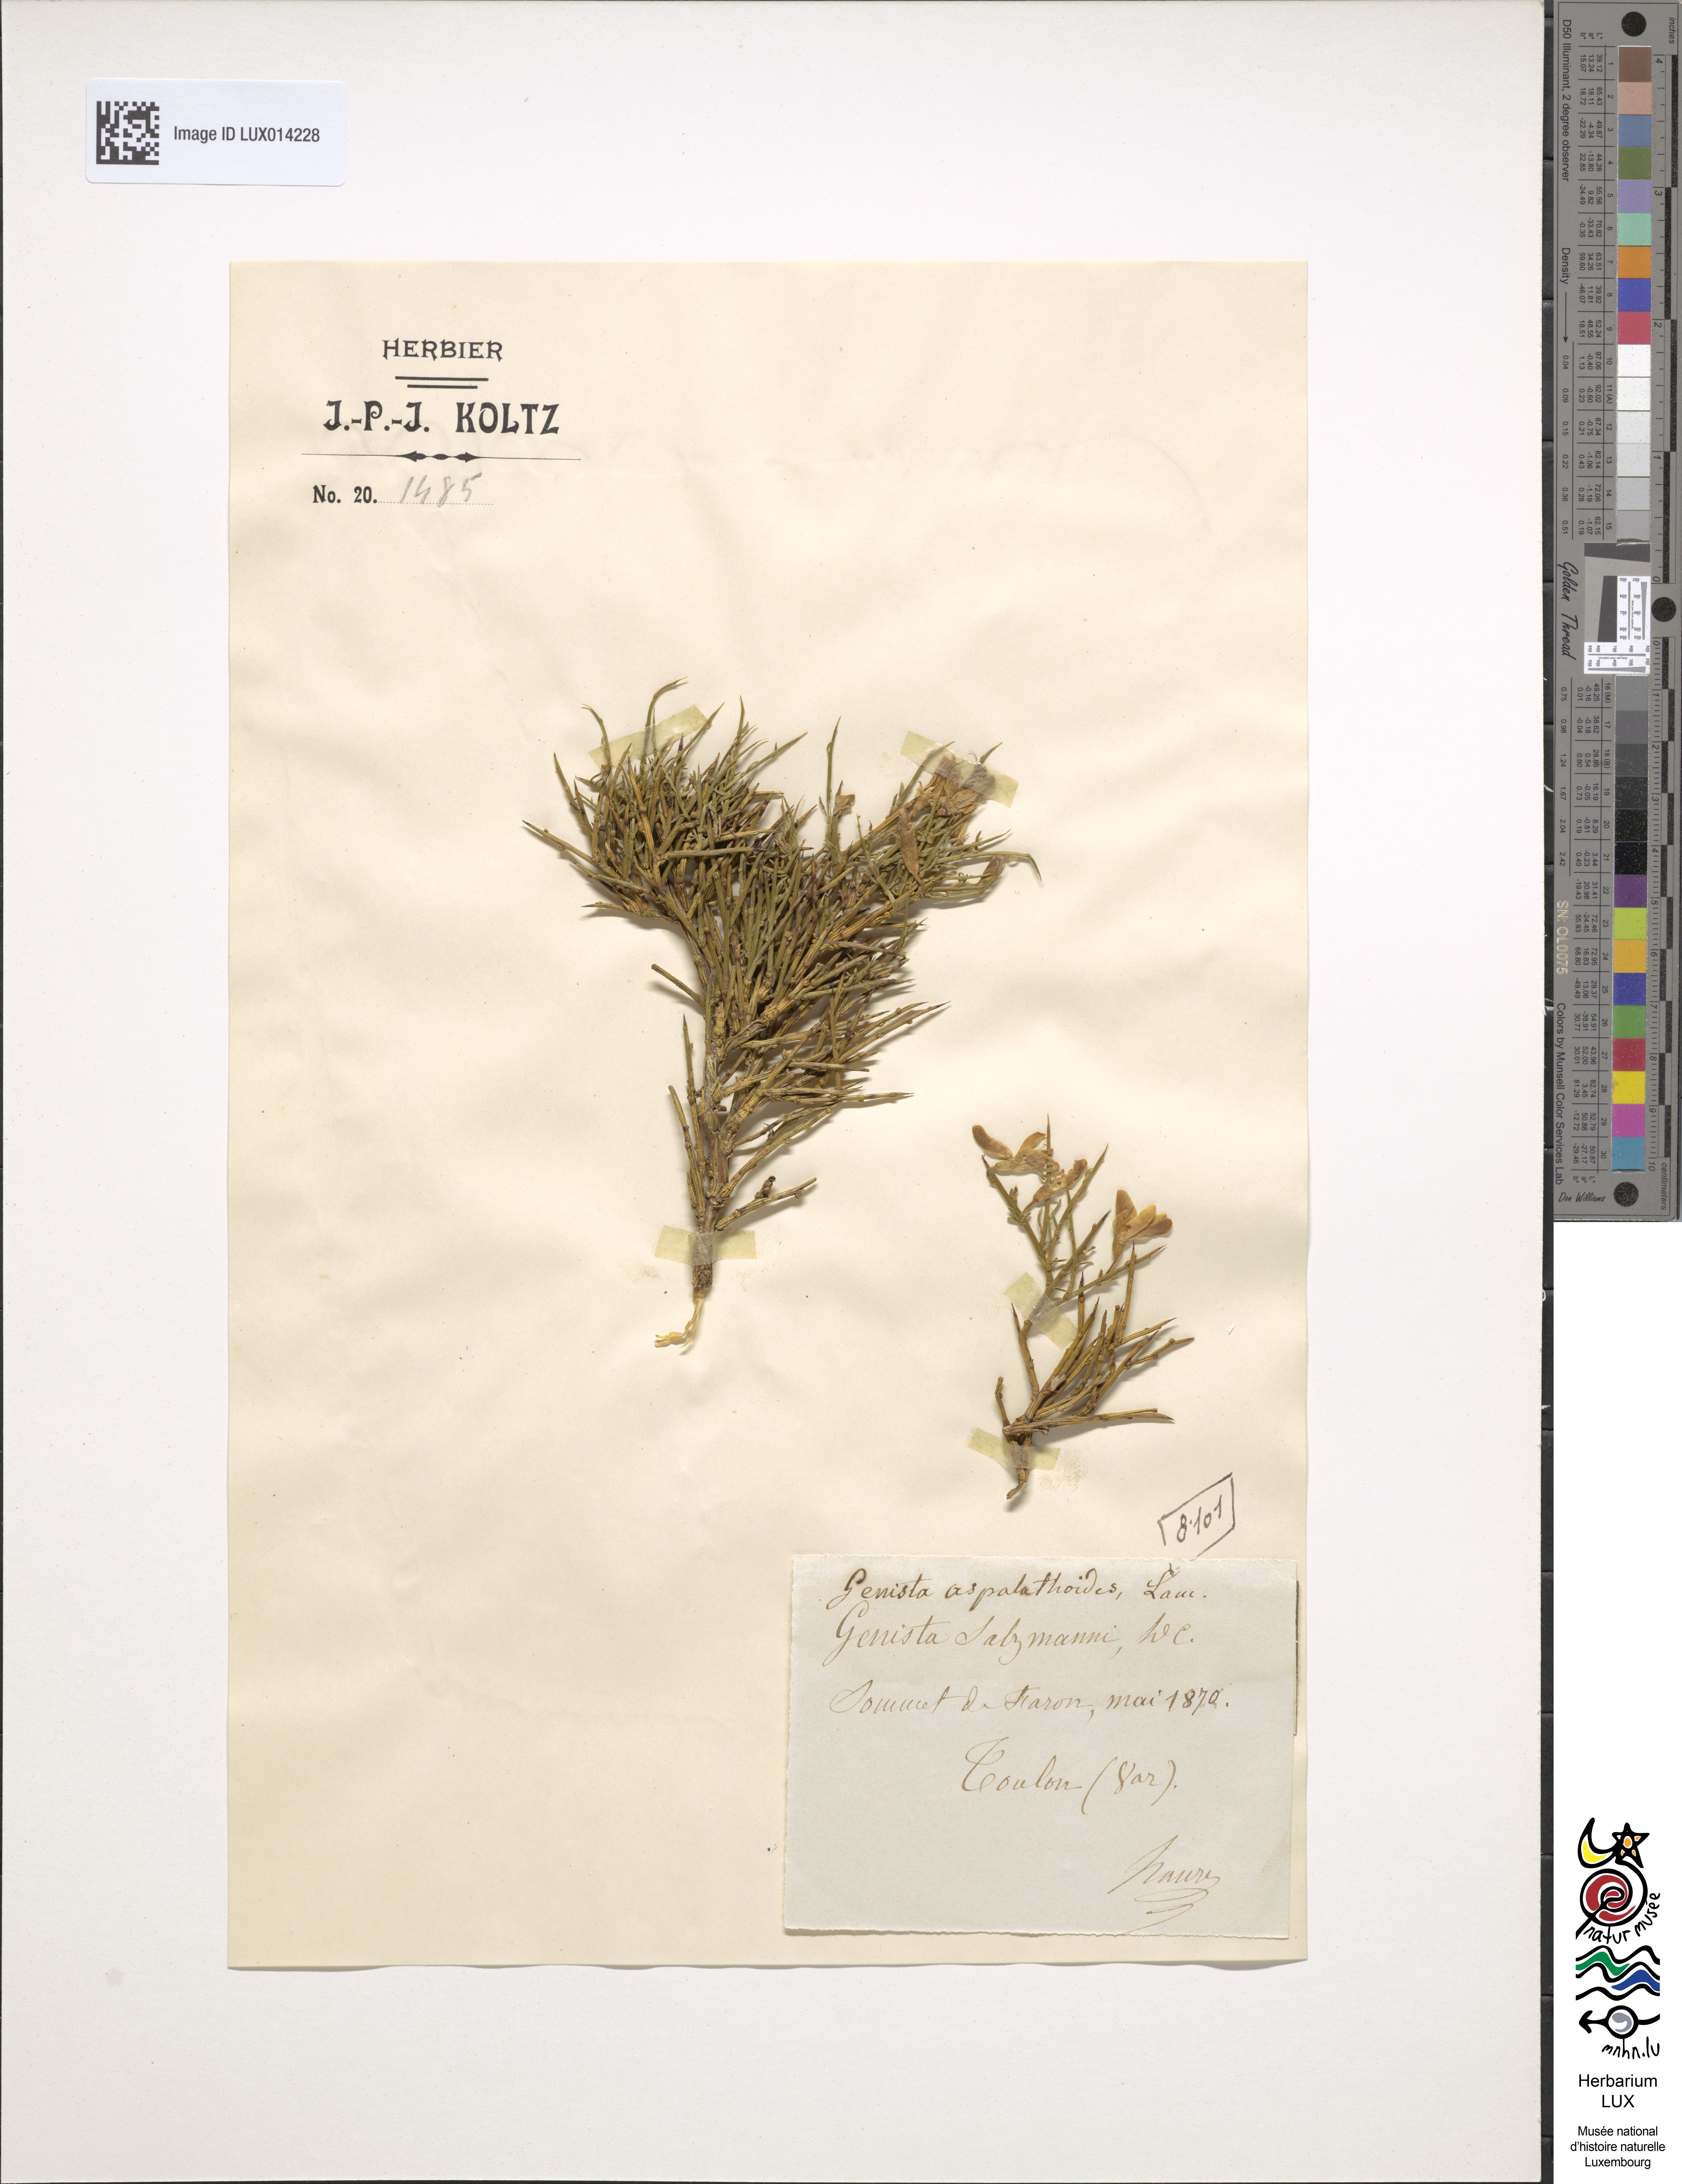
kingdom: Plantae
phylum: Tracheophyta
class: Magnoliopsida
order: Fabales
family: Fabaceae
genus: Genista
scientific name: Genista aspalathoides
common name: Broom of pantelleria
